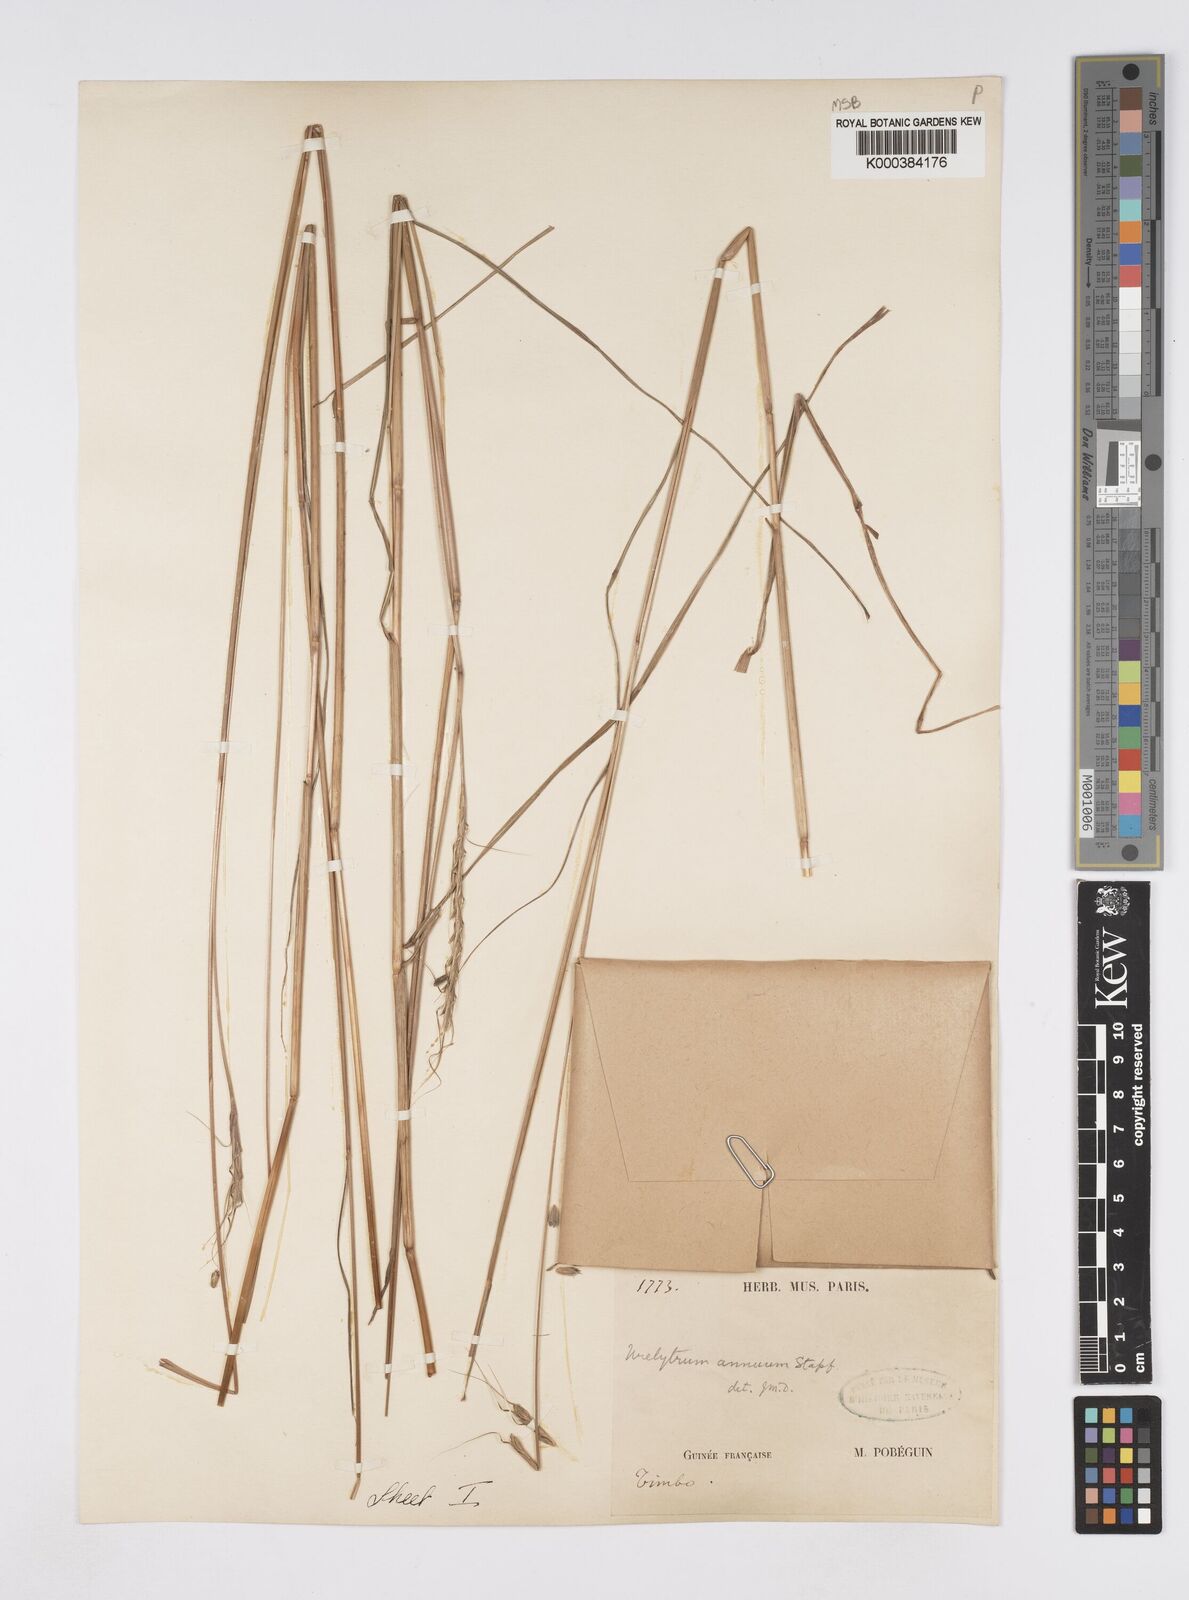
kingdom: Plantae
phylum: Tracheophyta
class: Liliopsida
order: Poales
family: Poaceae
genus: Urelytrum
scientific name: Urelytrum annuum
